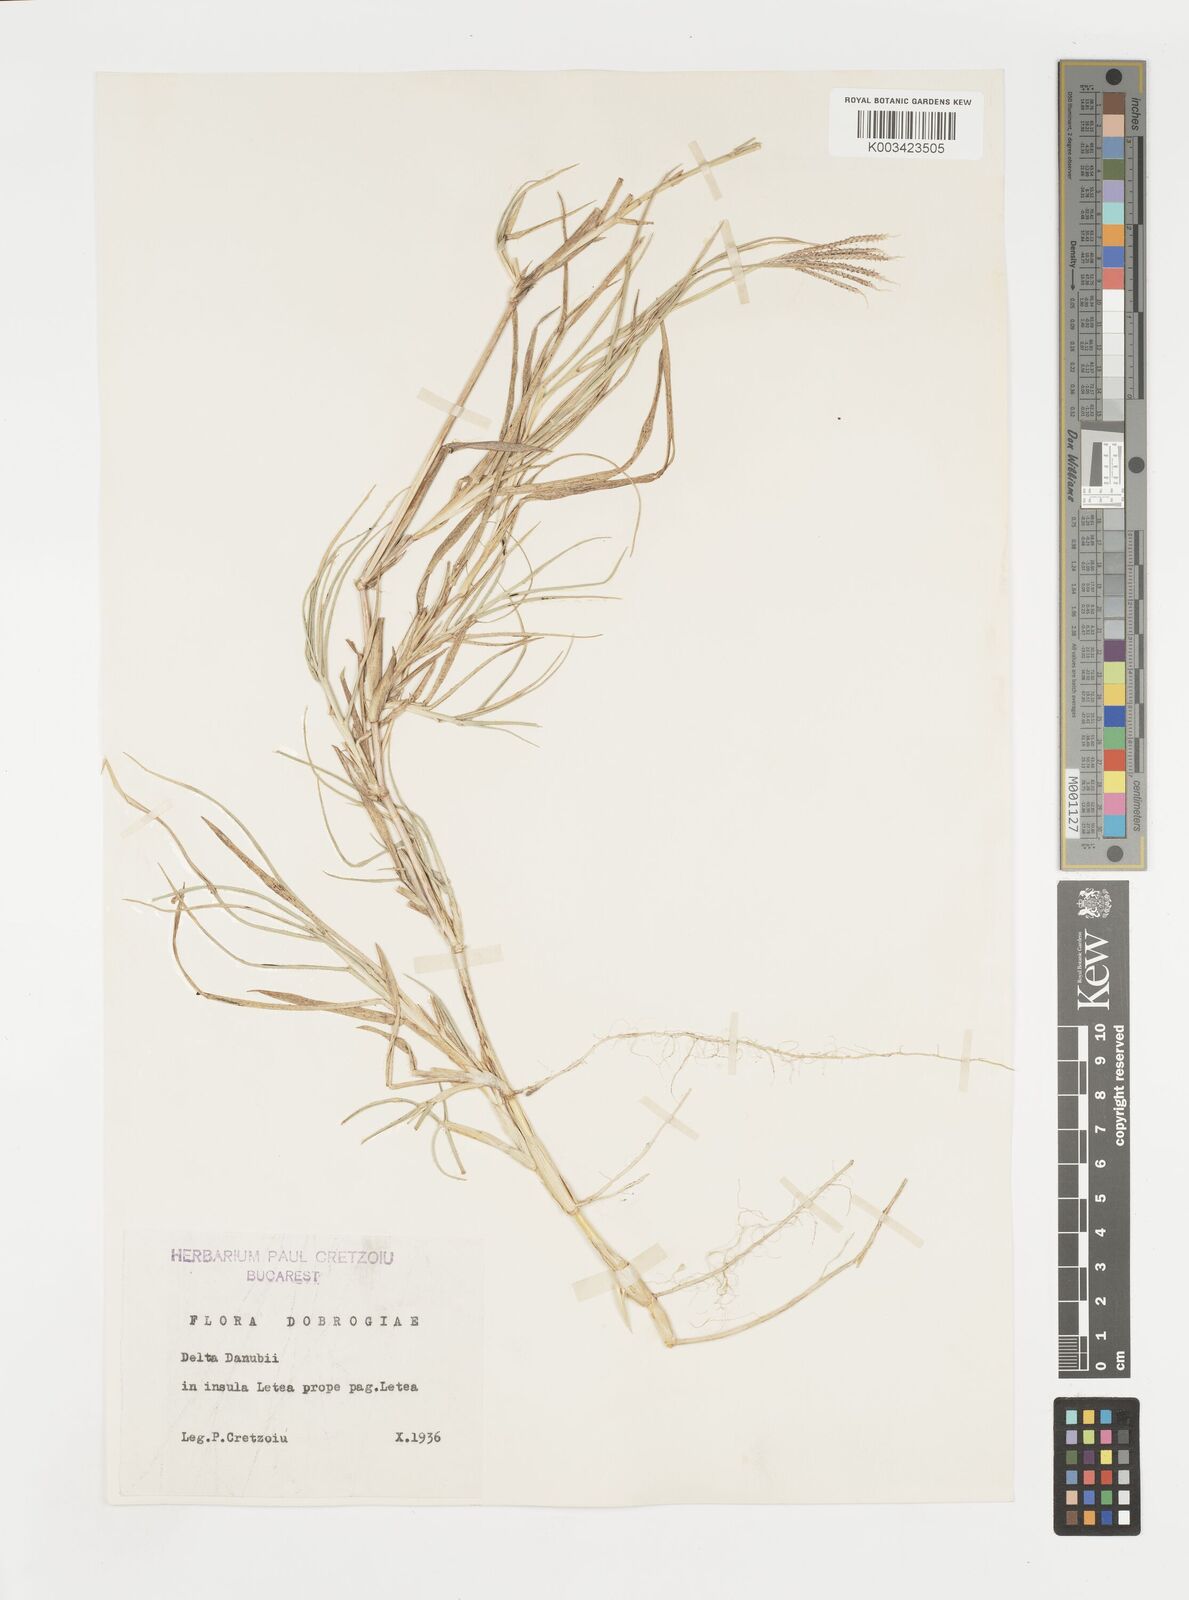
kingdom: Plantae
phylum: Tracheophyta
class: Liliopsida
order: Poales
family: Poaceae
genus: Cynodon
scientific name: Cynodon dactylon
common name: Bermuda grass
